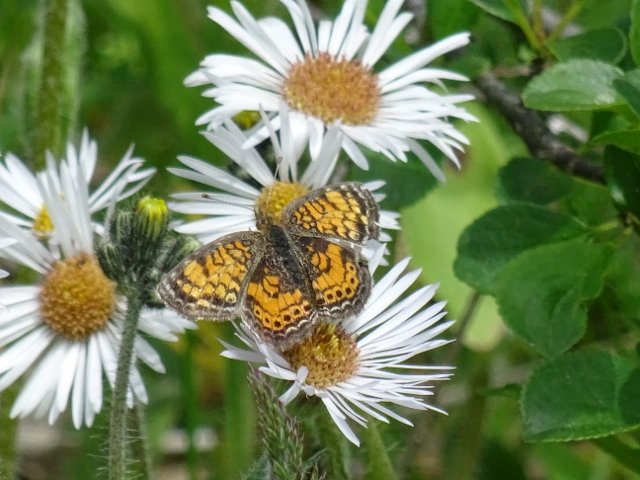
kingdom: Animalia
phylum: Arthropoda
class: Insecta
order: Lepidoptera
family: Nymphalidae
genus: Phyciodes
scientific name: Phyciodes tharos
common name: Pearl Crescent
